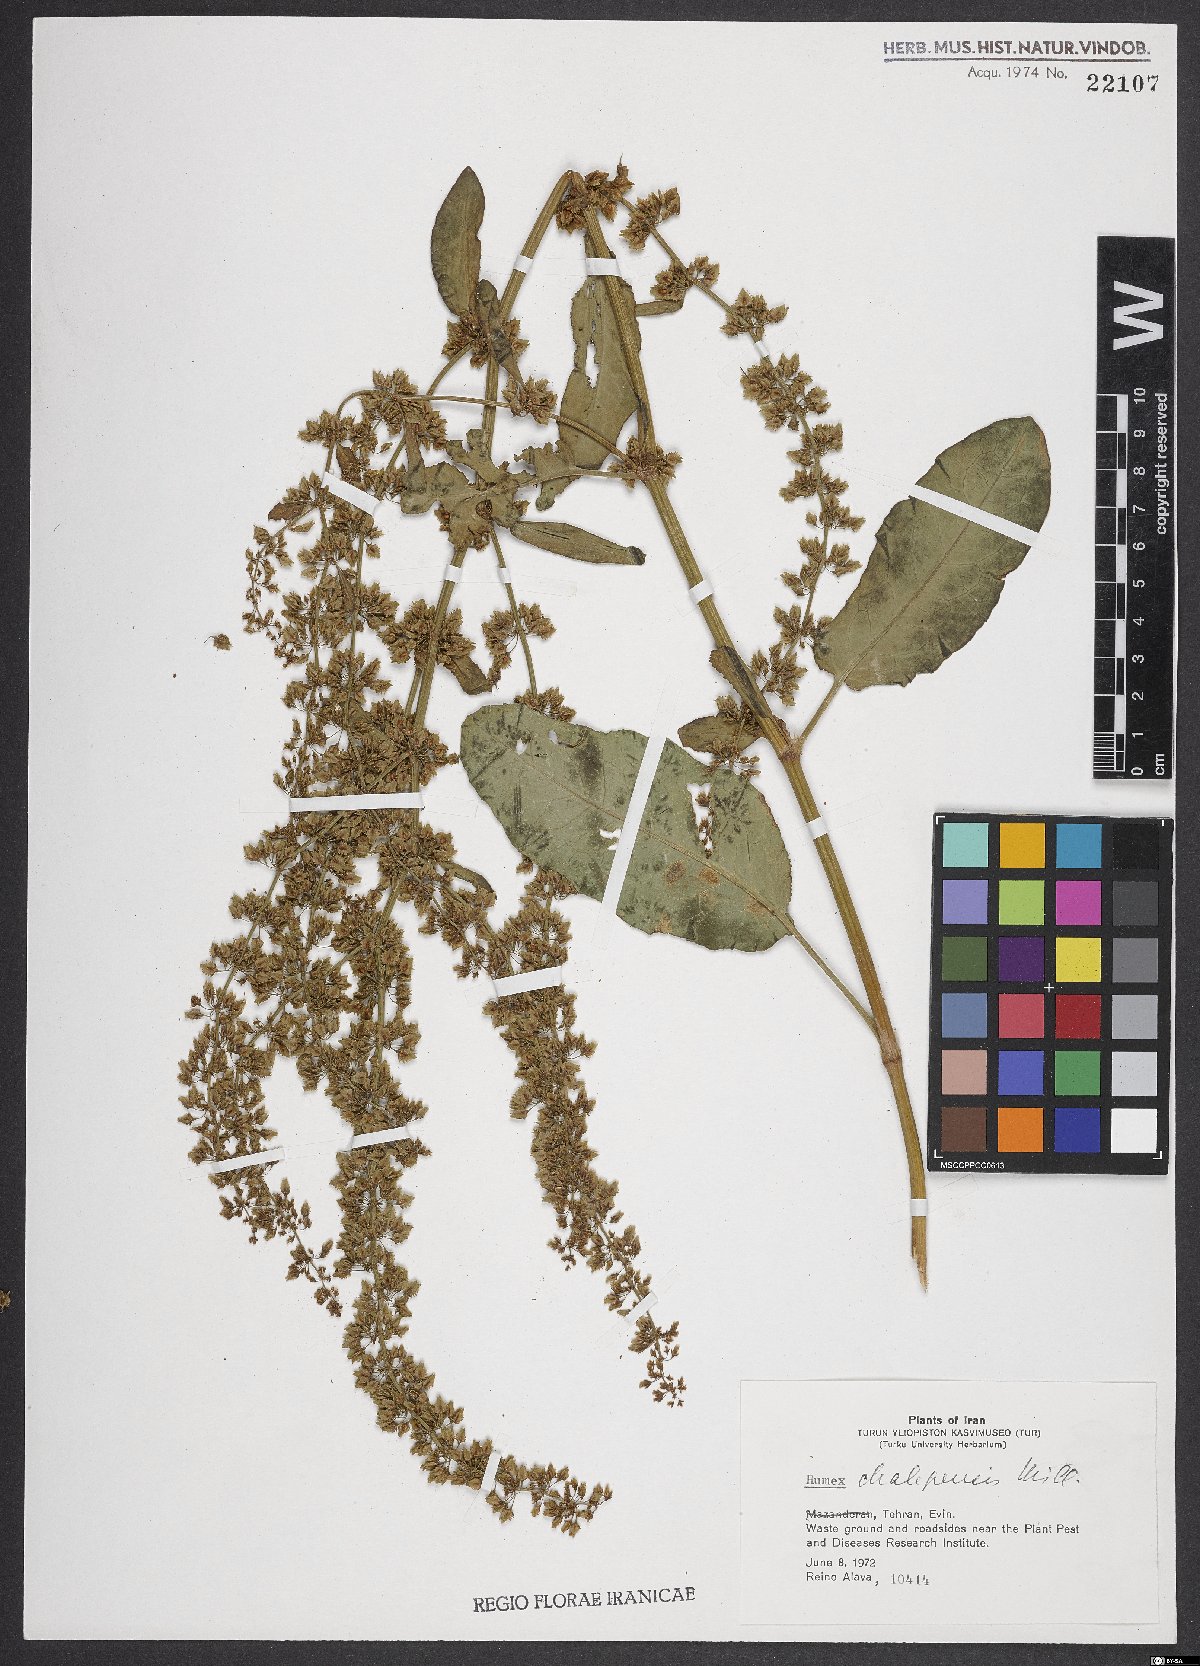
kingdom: Plantae
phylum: Tracheophyta
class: Magnoliopsida
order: Caryophyllales
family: Polygonaceae
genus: Rumex
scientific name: Rumex chalepensis
